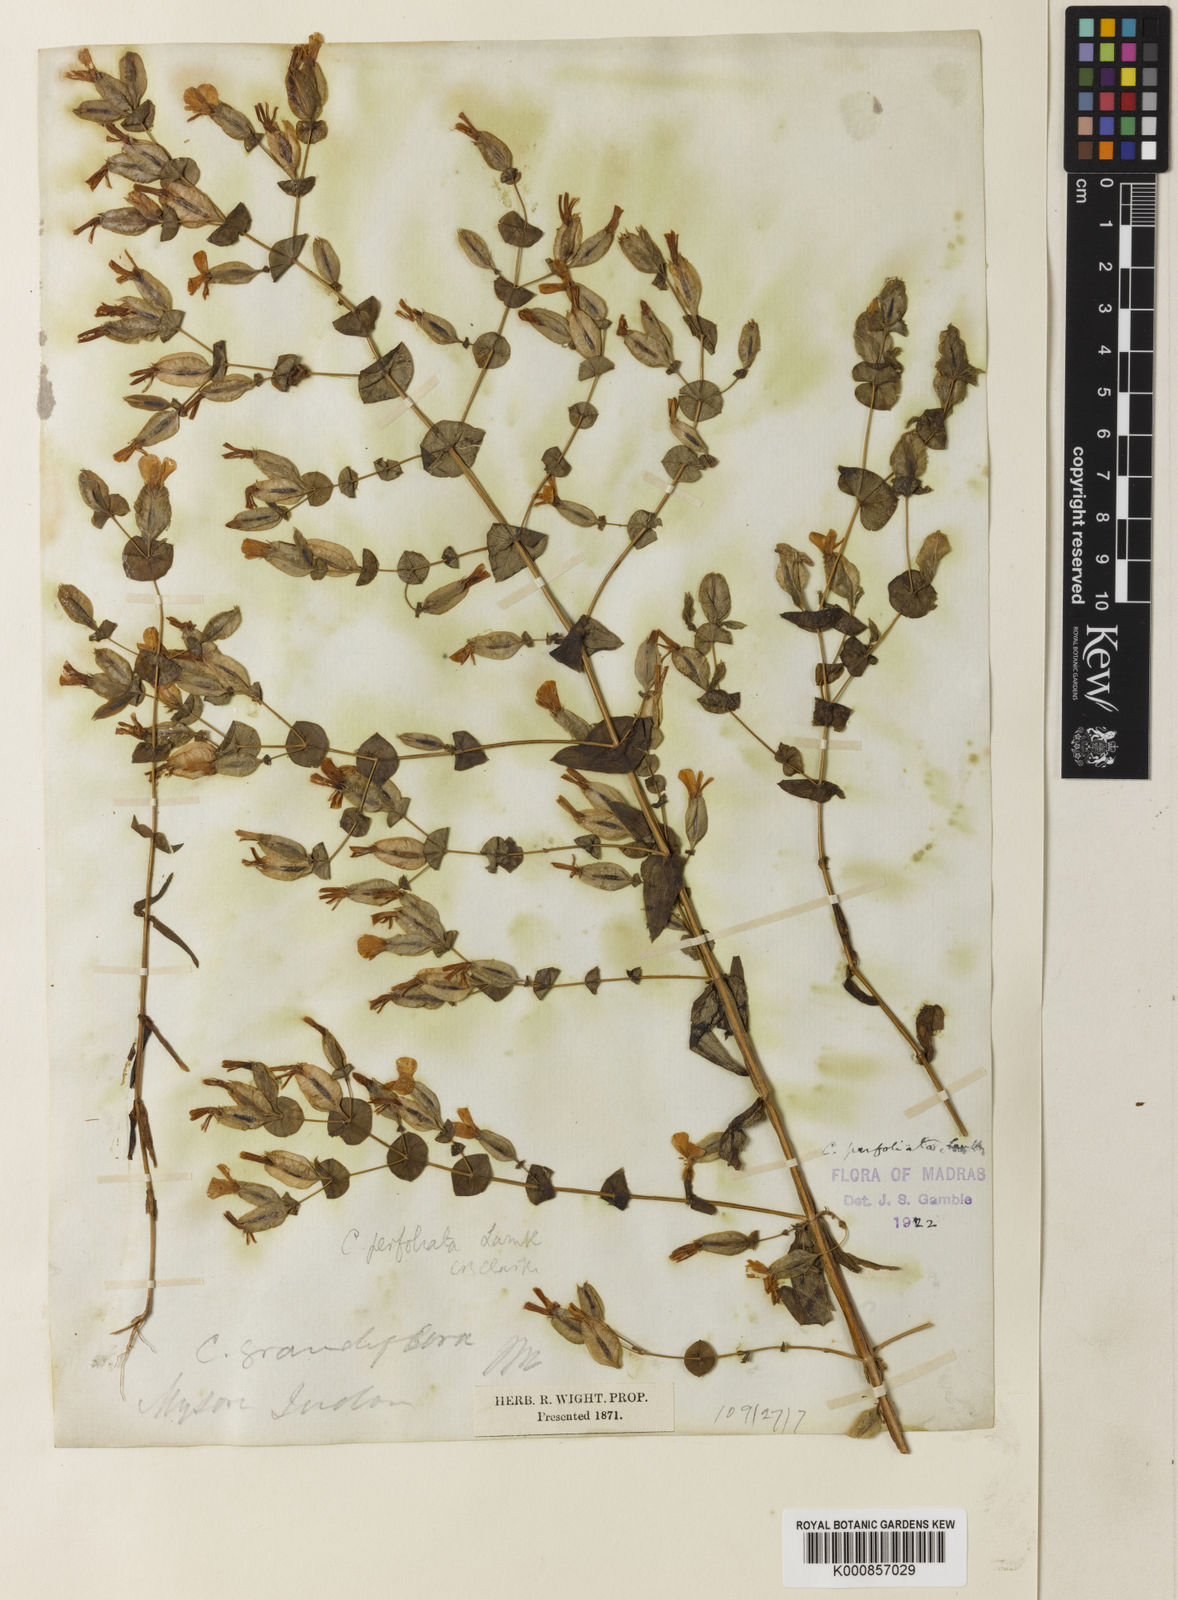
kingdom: Plantae
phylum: Tracheophyta
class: Magnoliopsida
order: Gentianales
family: Gentianaceae
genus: Canscora
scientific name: Canscora perfoliata
